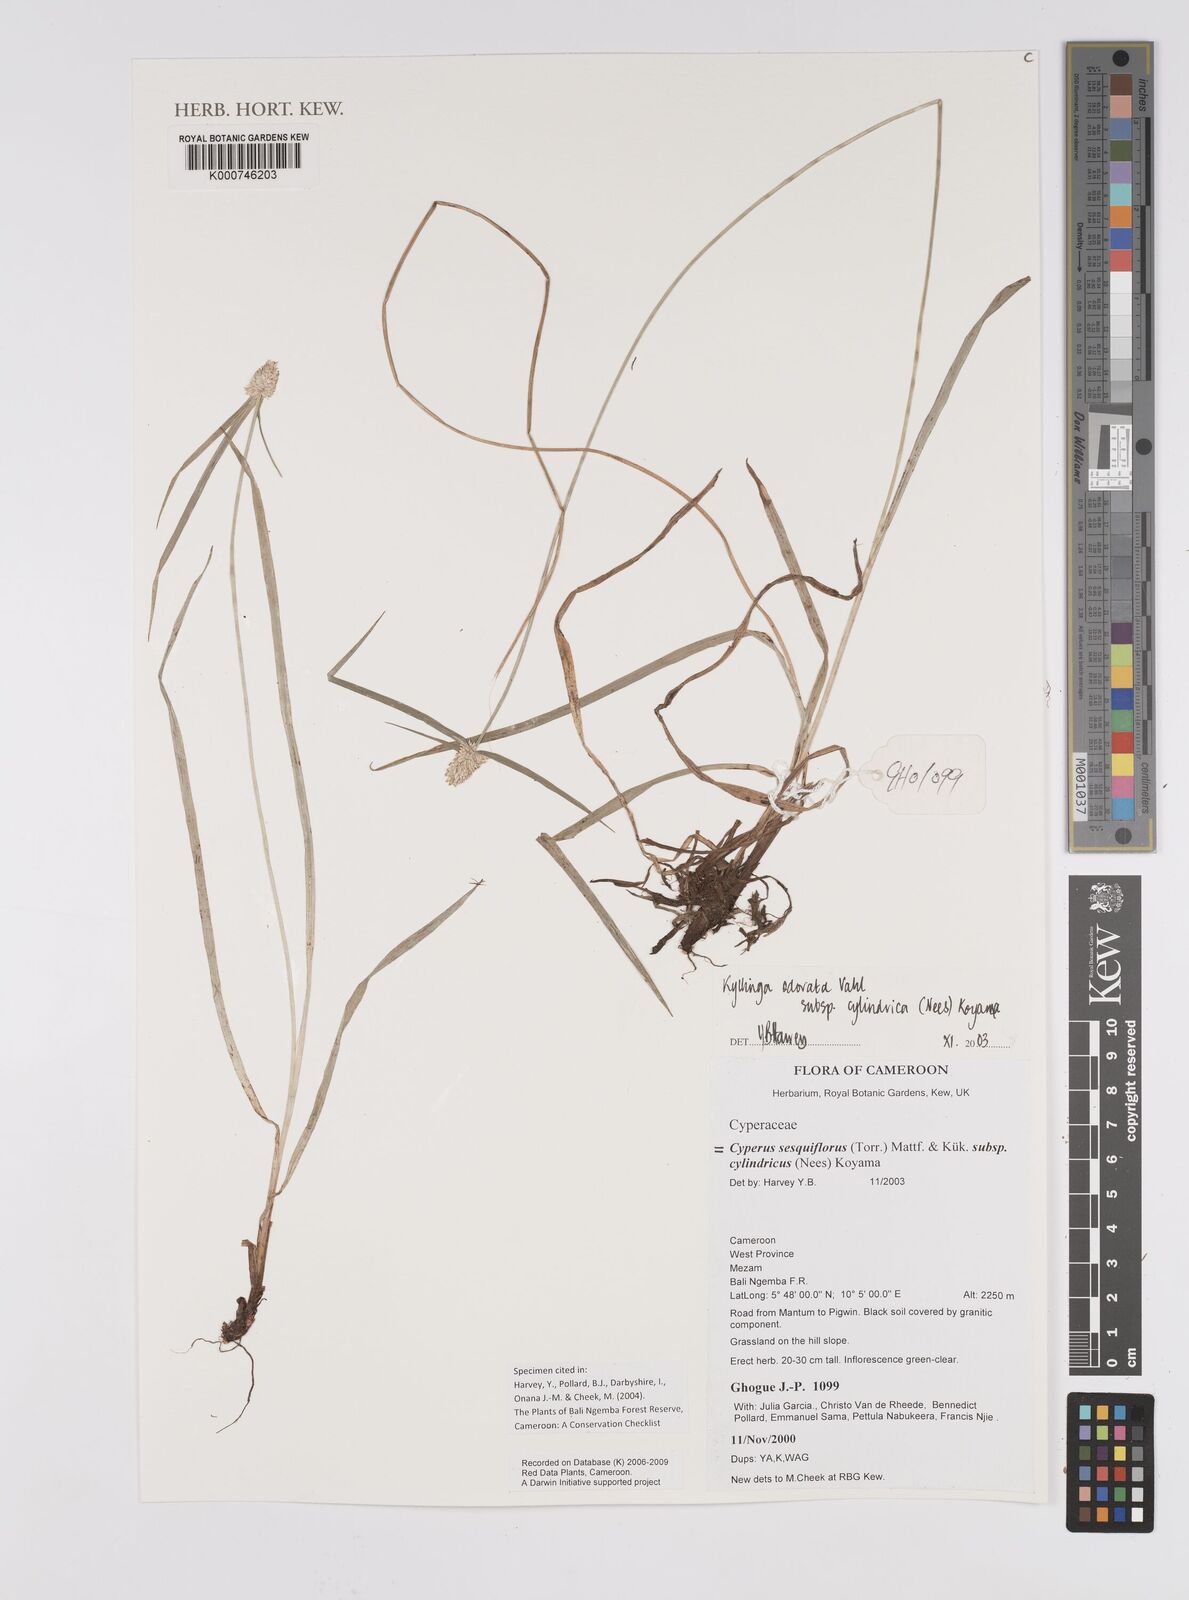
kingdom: Plantae
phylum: Tracheophyta
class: Liliopsida
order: Poales
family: Cyperaceae
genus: Cyperus
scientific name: Cyperus
